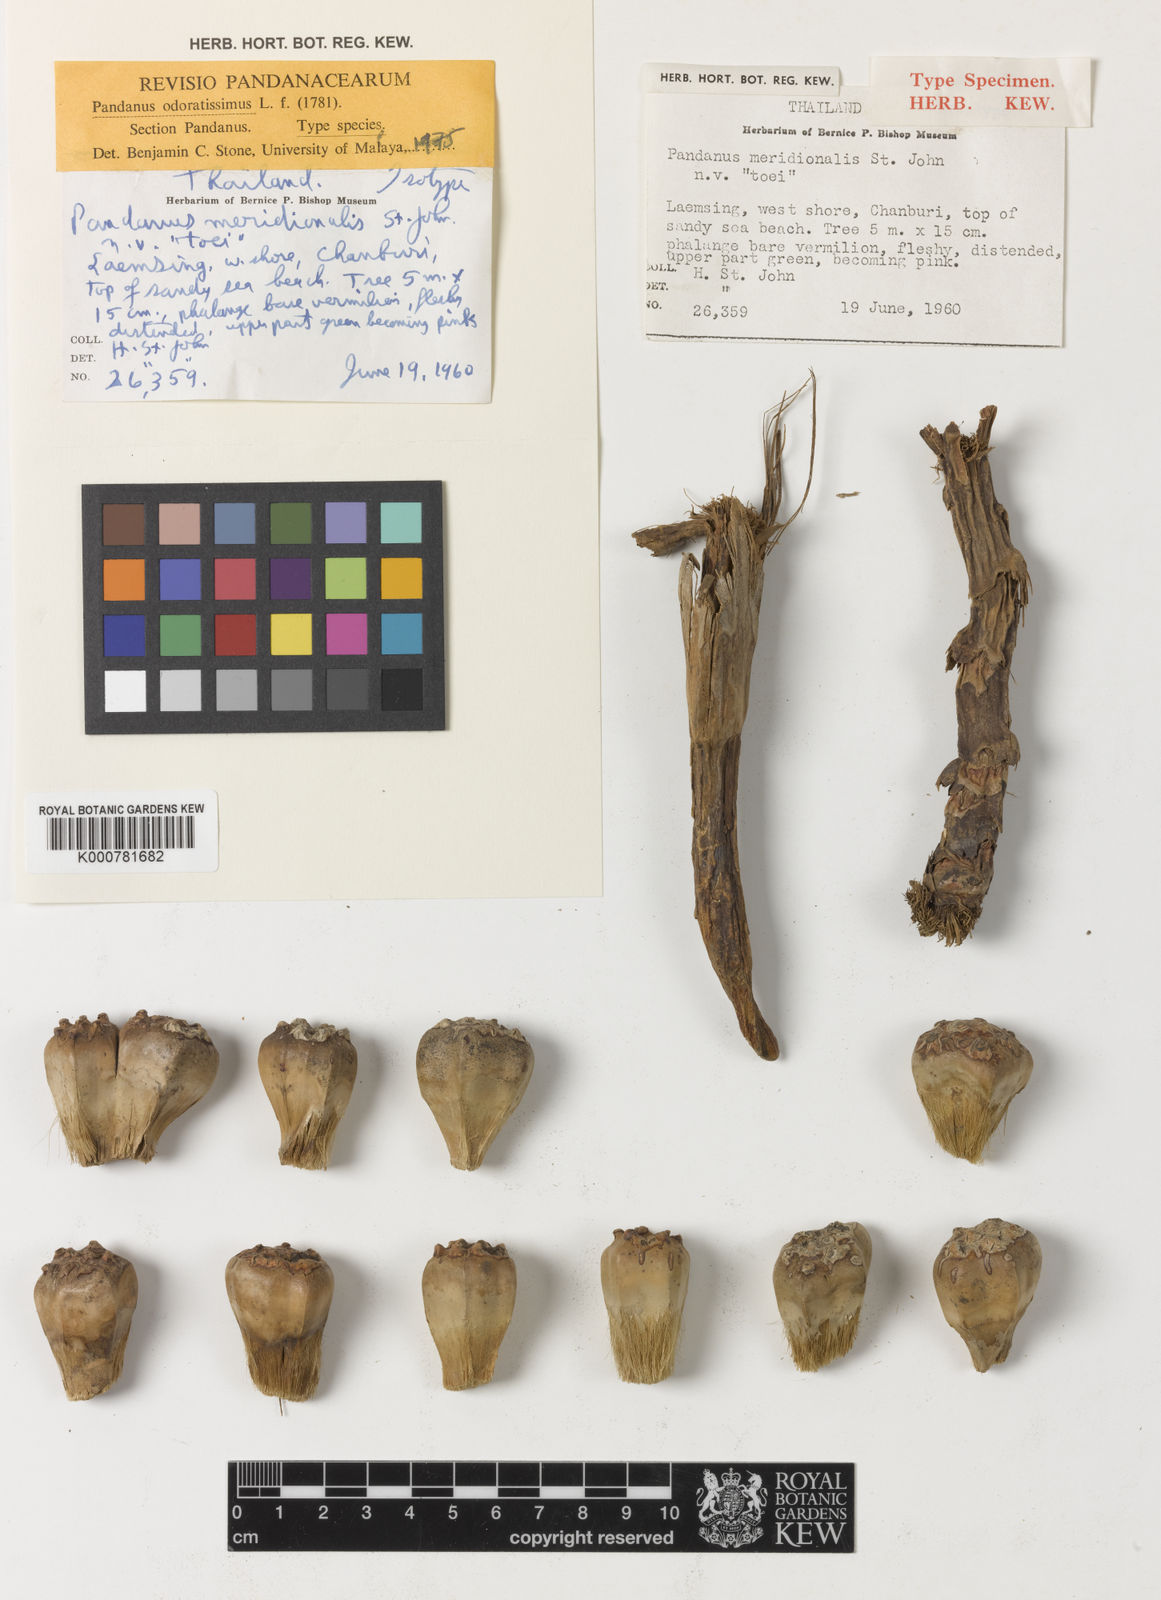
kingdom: Plantae
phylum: Tracheophyta
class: Liliopsida
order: Pandanales
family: Pandanaceae
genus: Pandanus
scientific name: Pandanus odorifer
